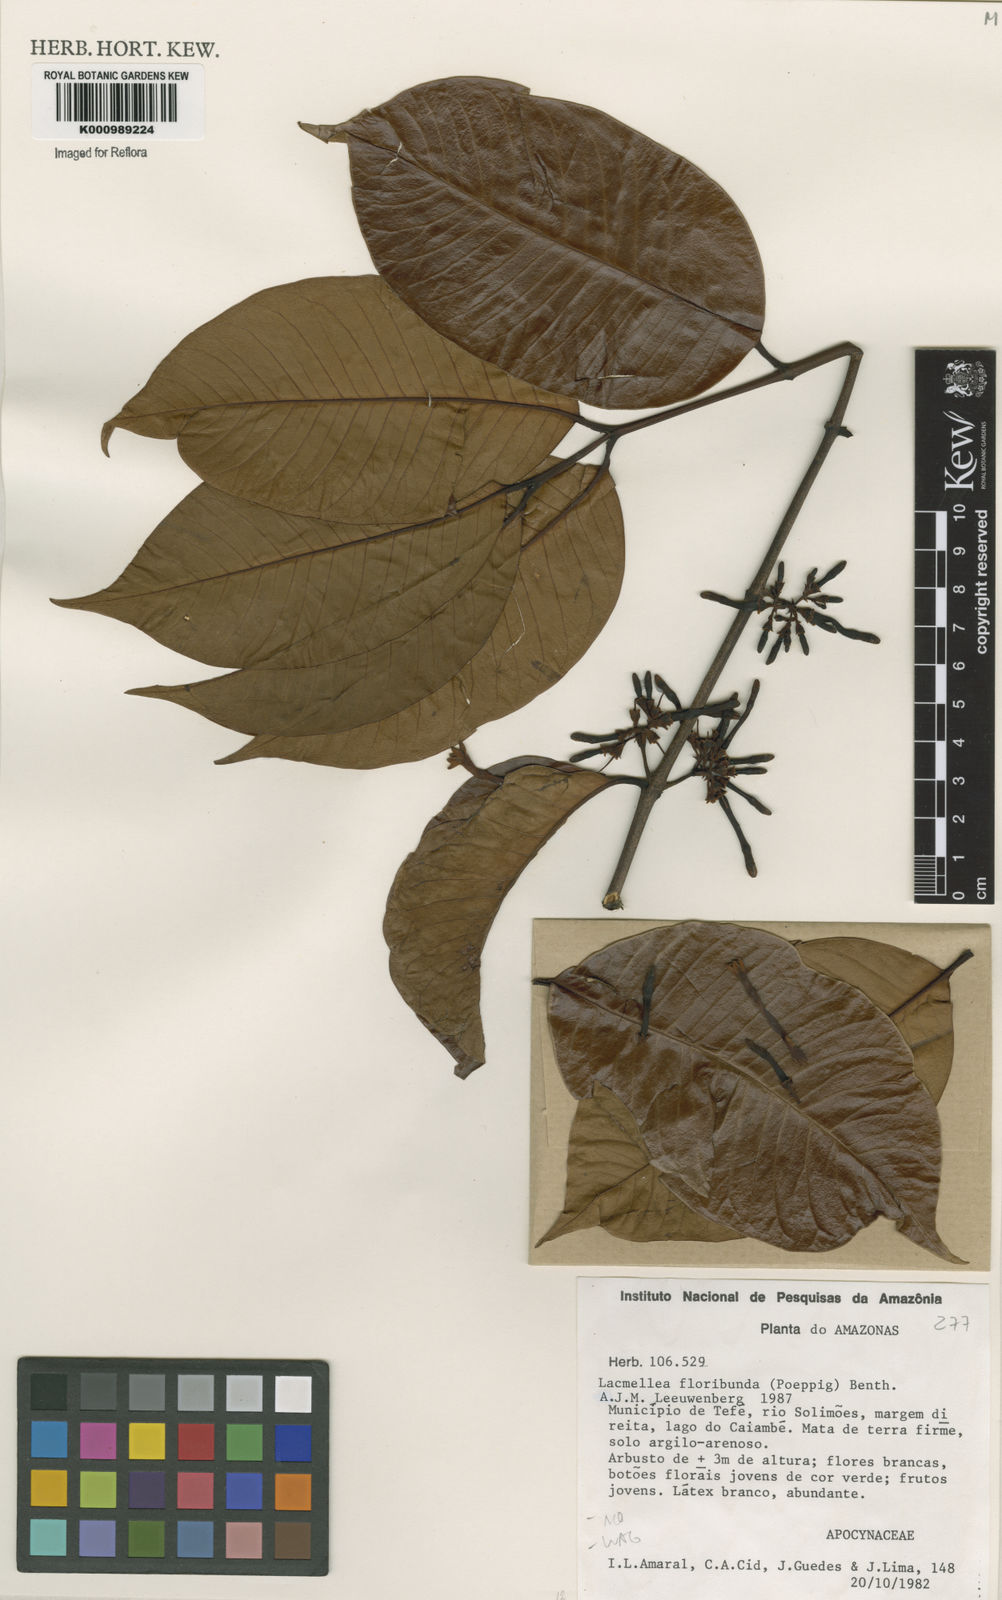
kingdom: Plantae
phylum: Tracheophyta
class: Magnoliopsida
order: Gentianales
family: Apocynaceae
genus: Lacmellea
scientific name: Lacmellea aculeata
